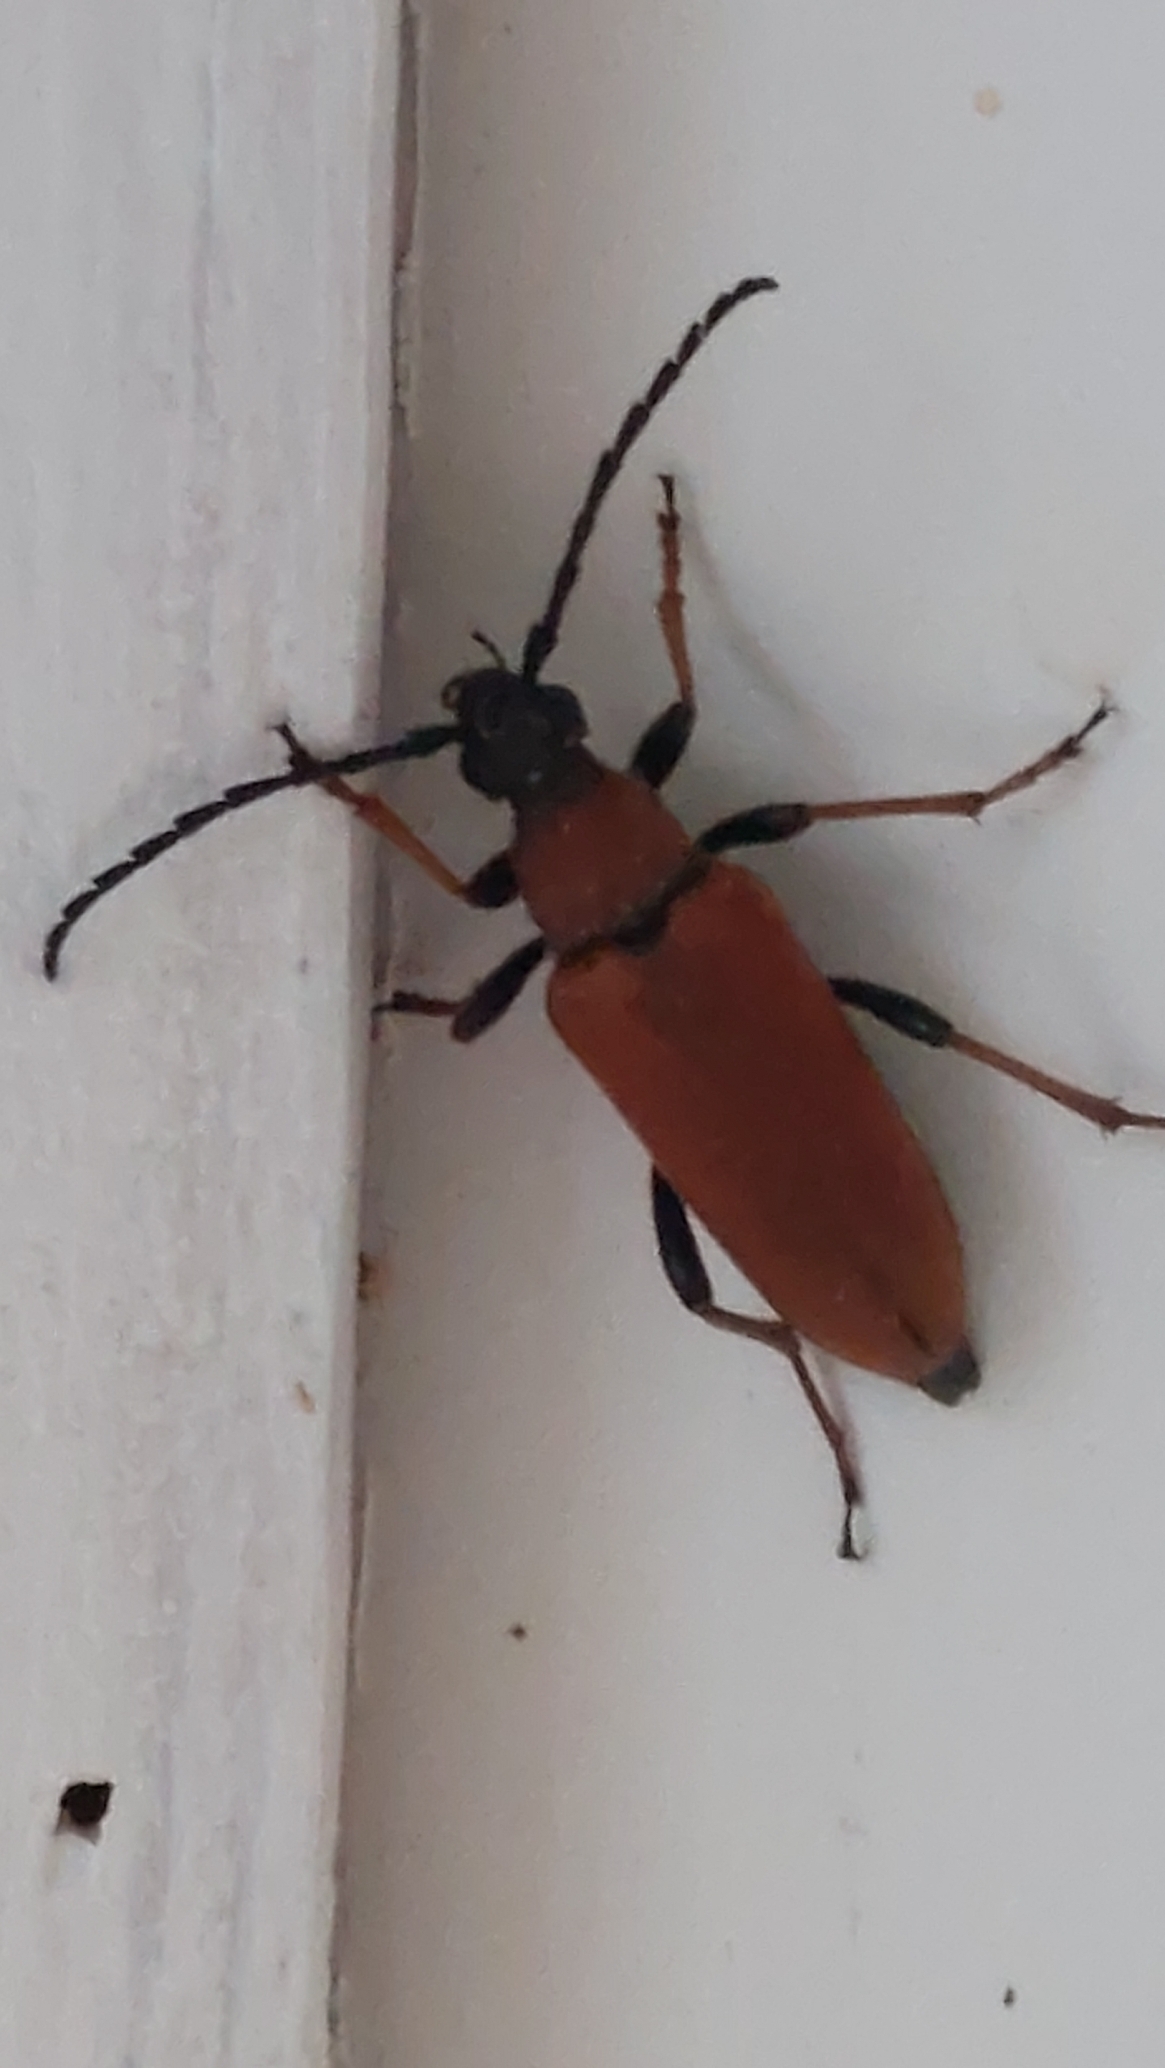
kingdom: Animalia
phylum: Arthropoda
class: Insecta
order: Coleoptera
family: Cerambycidae
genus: Stictoleptura
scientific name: Stictoleptura rubra
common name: Rød blomsterbuk
